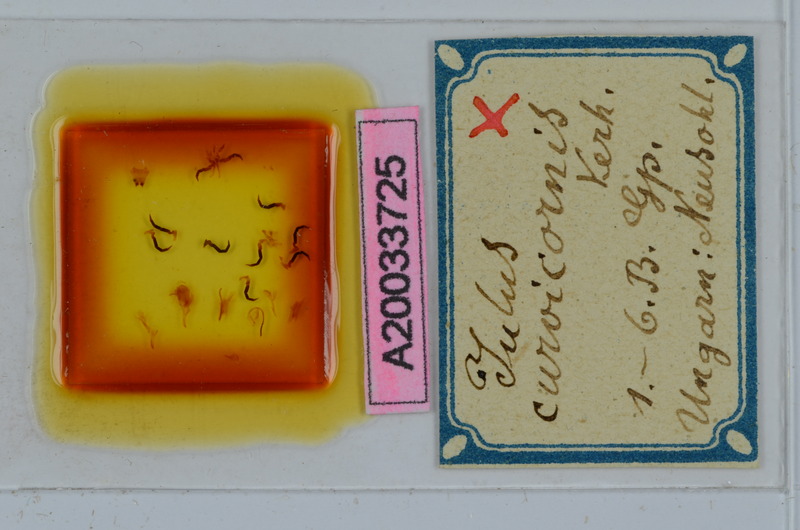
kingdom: Animalia
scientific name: Animalia
